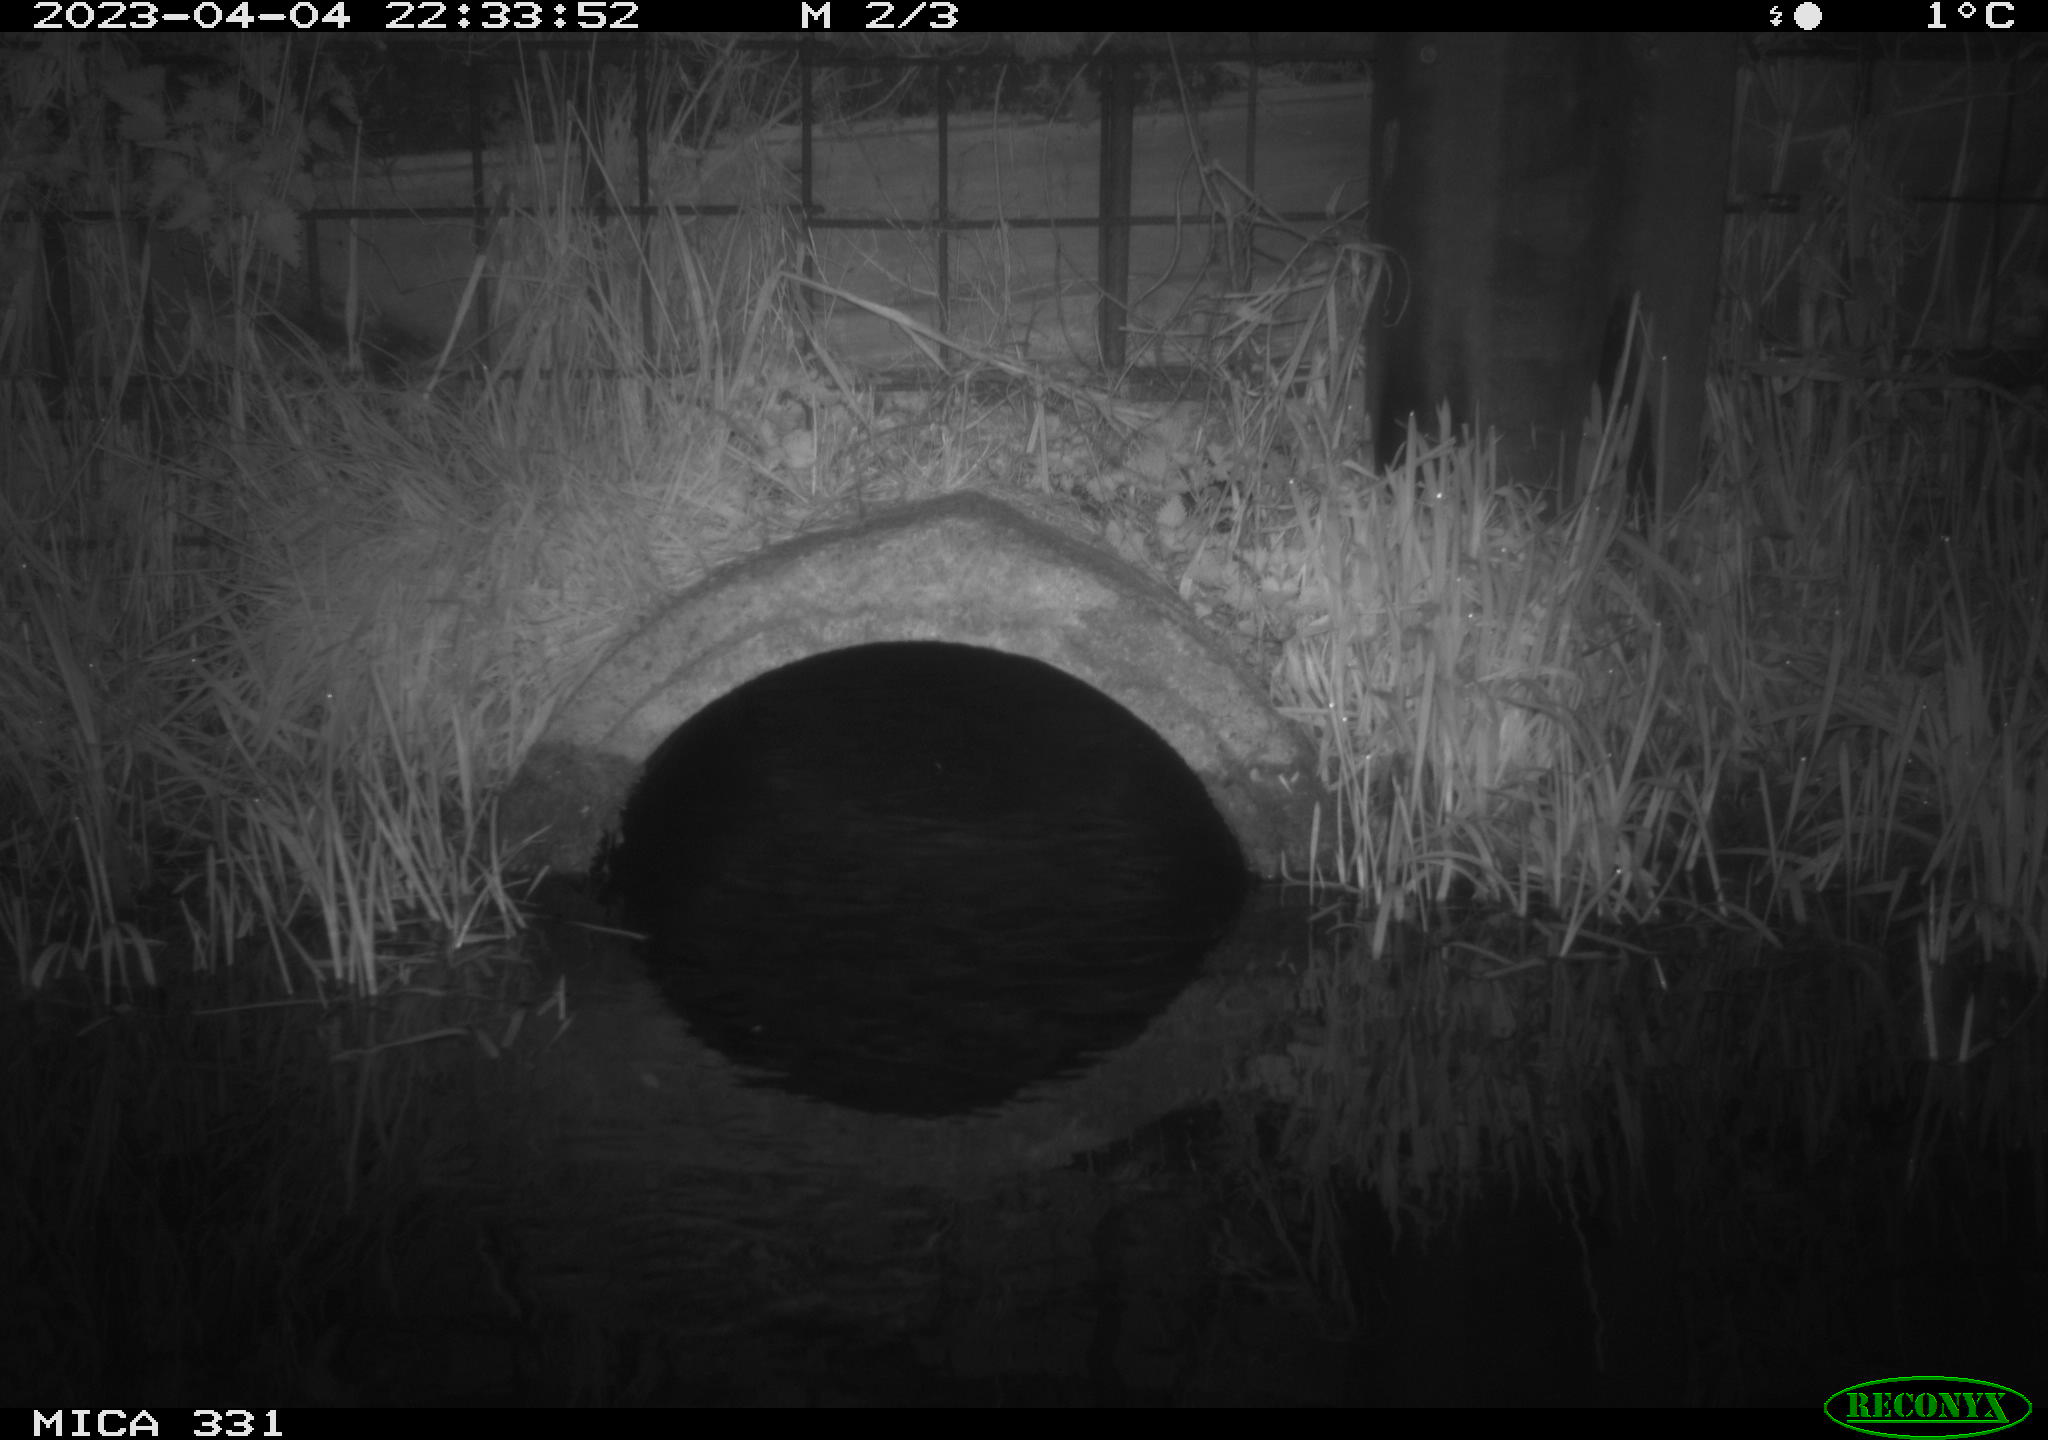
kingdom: Animalia
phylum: Chordata
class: Mammalia
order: Rodentia
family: Muridae
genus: Rattus
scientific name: Rattus norvegicus
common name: Brown rat
